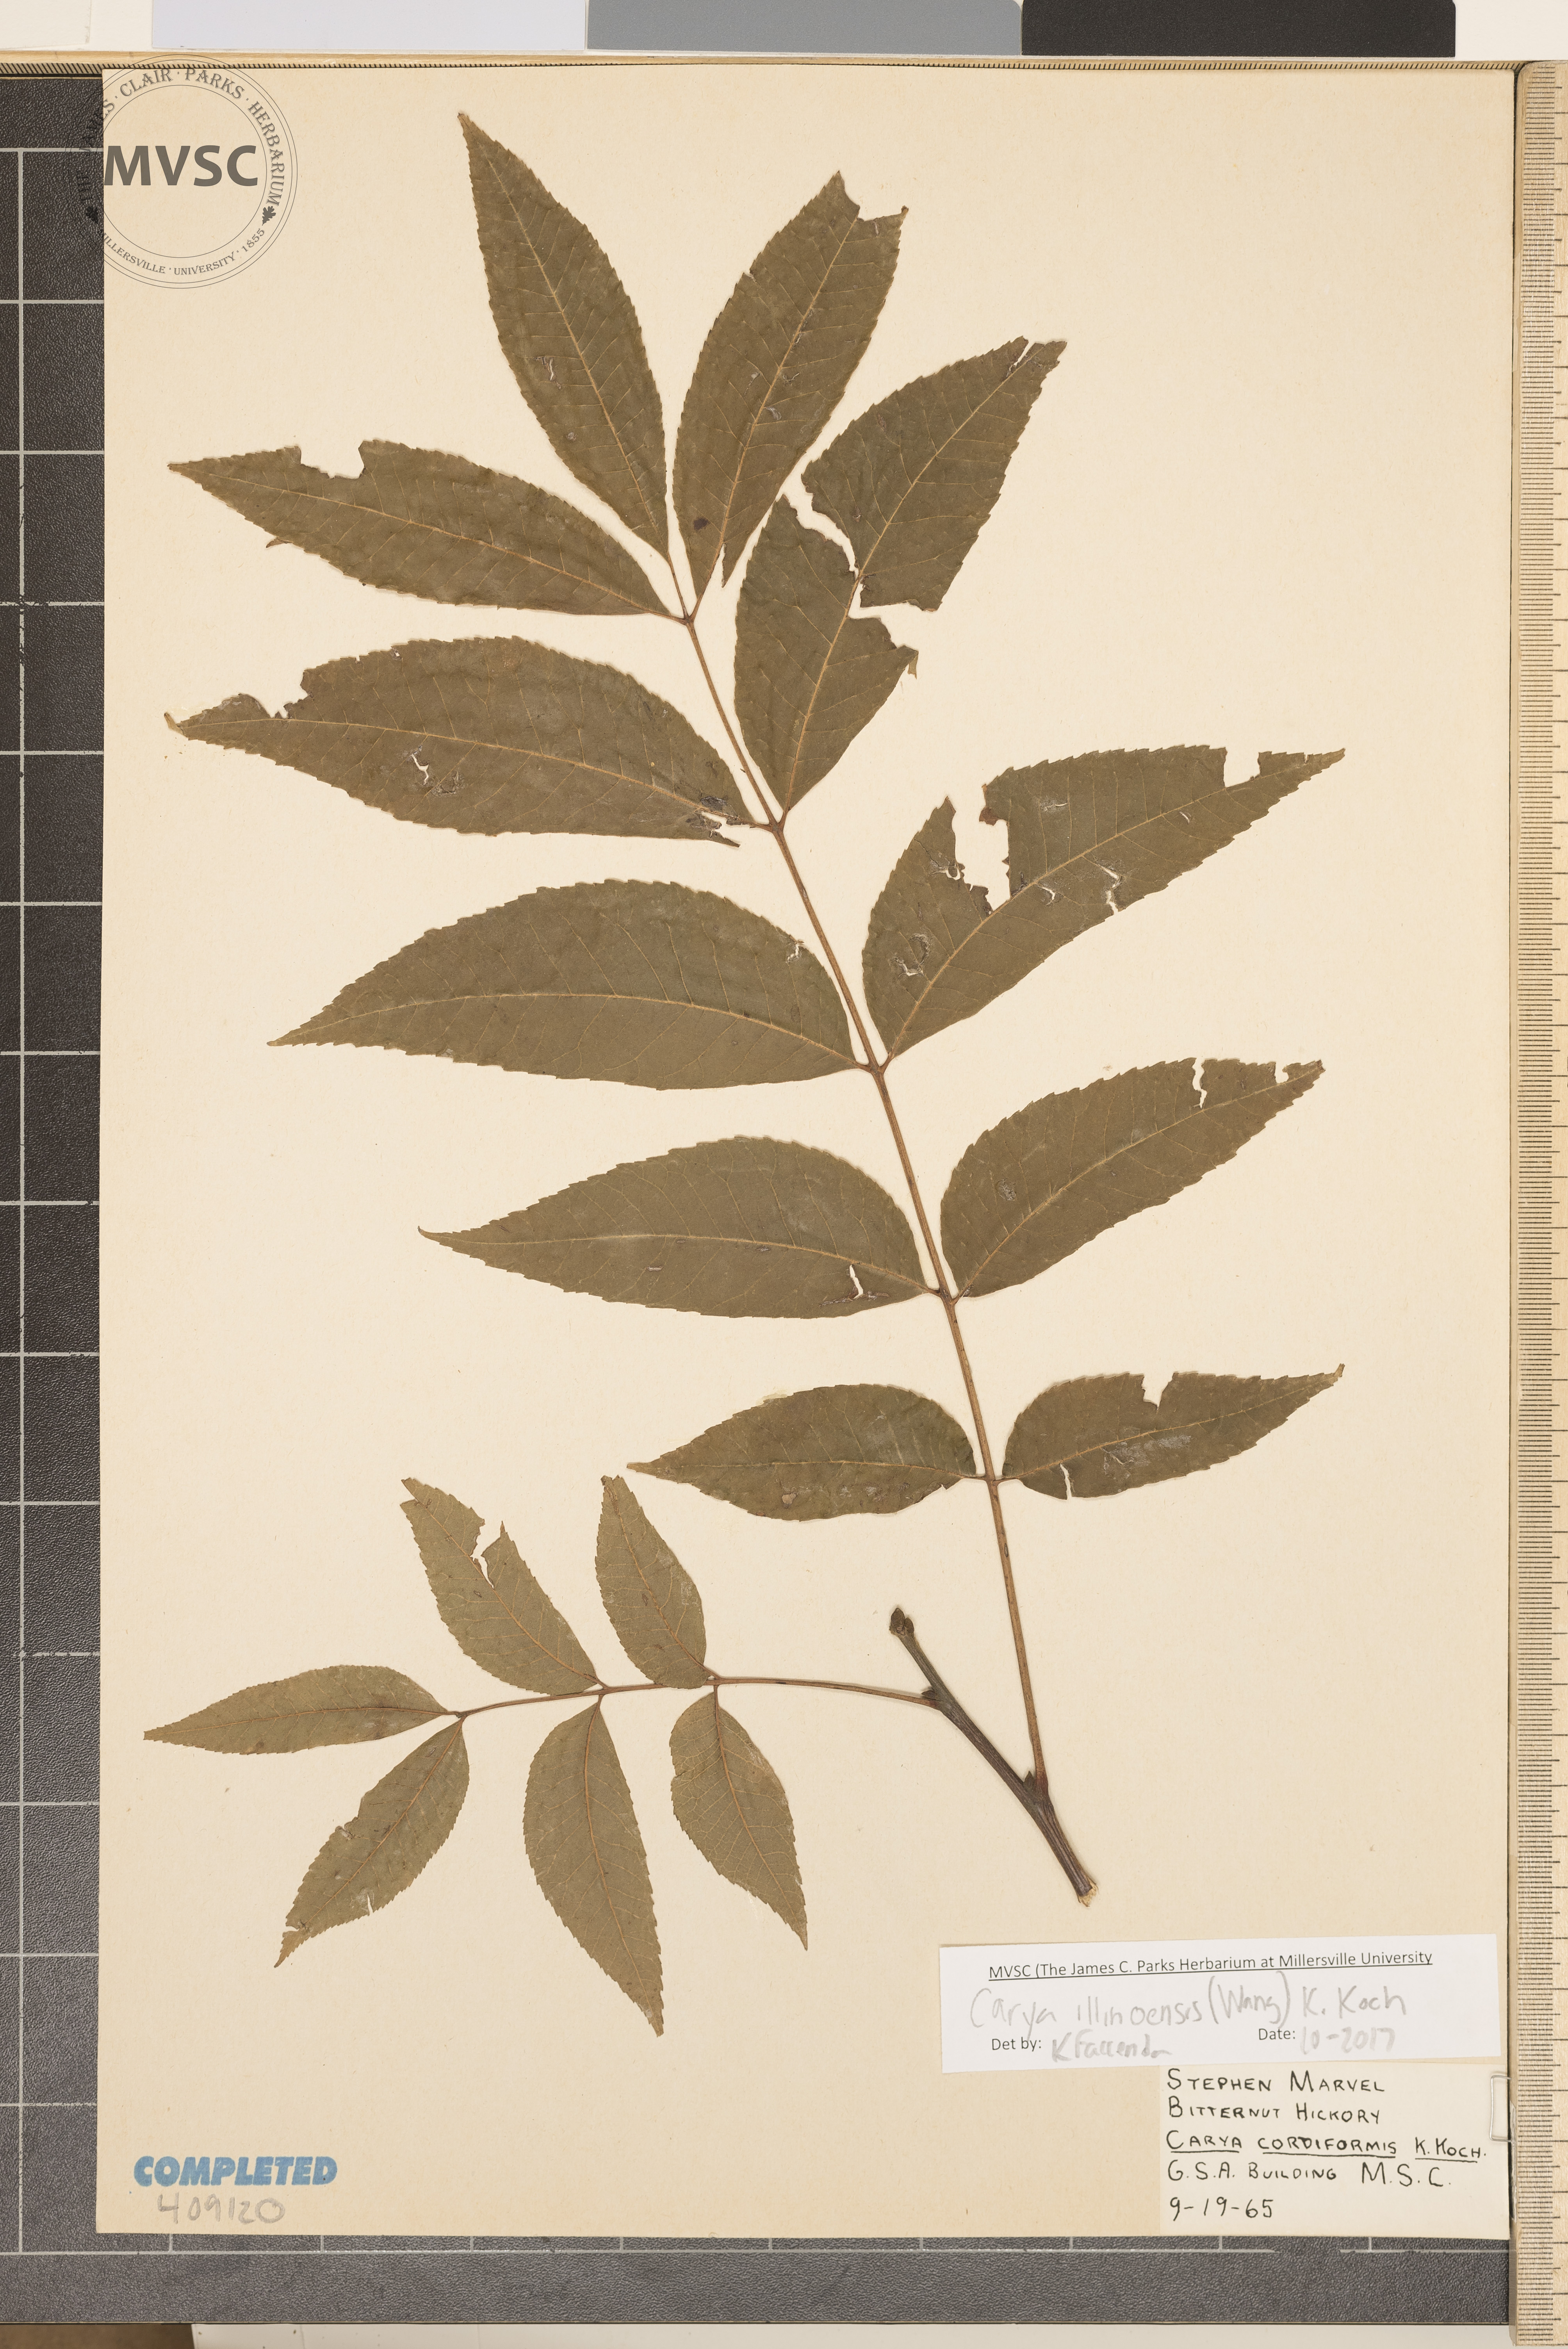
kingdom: Plantae
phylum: Tracheophyta
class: Magnoliopsida
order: Fagales
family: Juglandaceae
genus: Carya
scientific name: Carya illinoinensis
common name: Pecan
